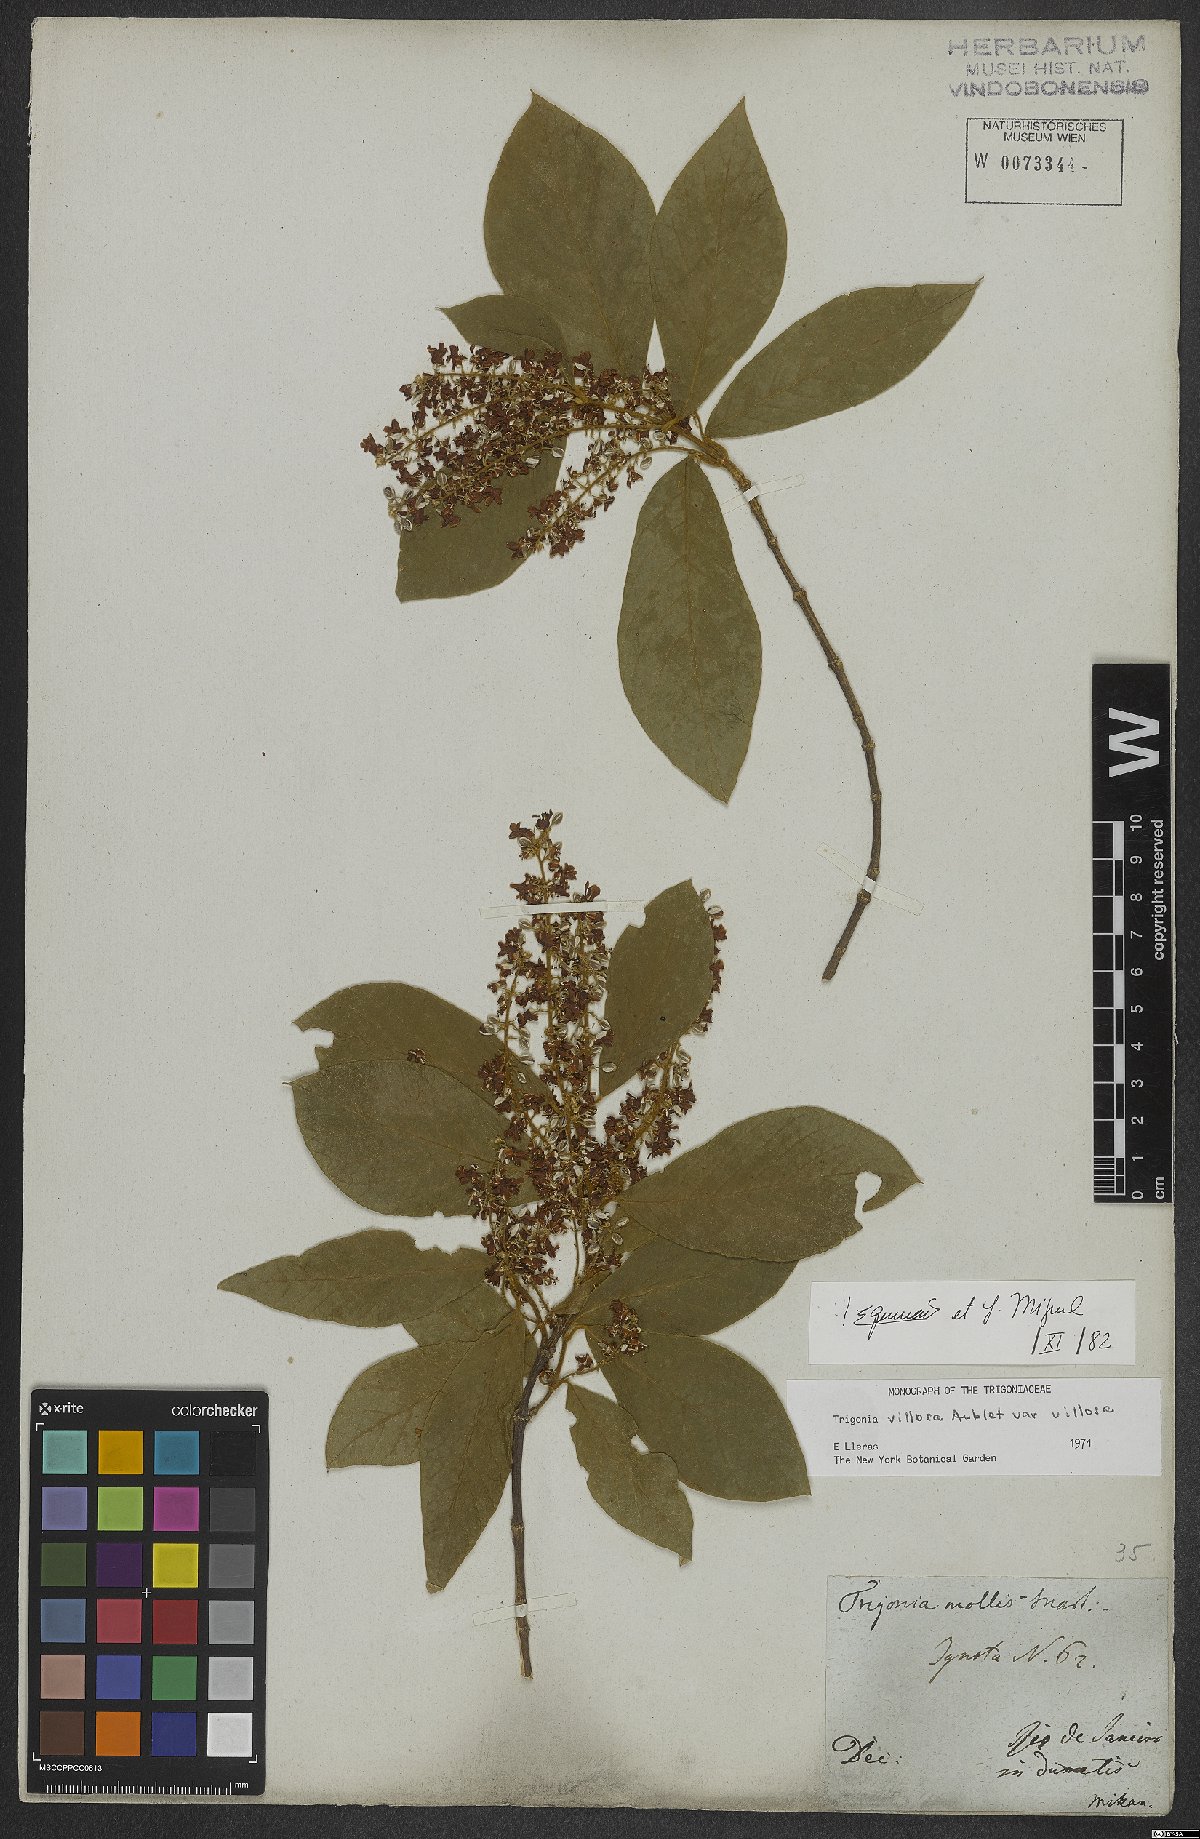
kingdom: Plantae
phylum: Tracheophyta
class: Magnoliopsida
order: Malpighiales
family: Trigoniaceae
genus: Trigonia
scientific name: Trigonia villosa
